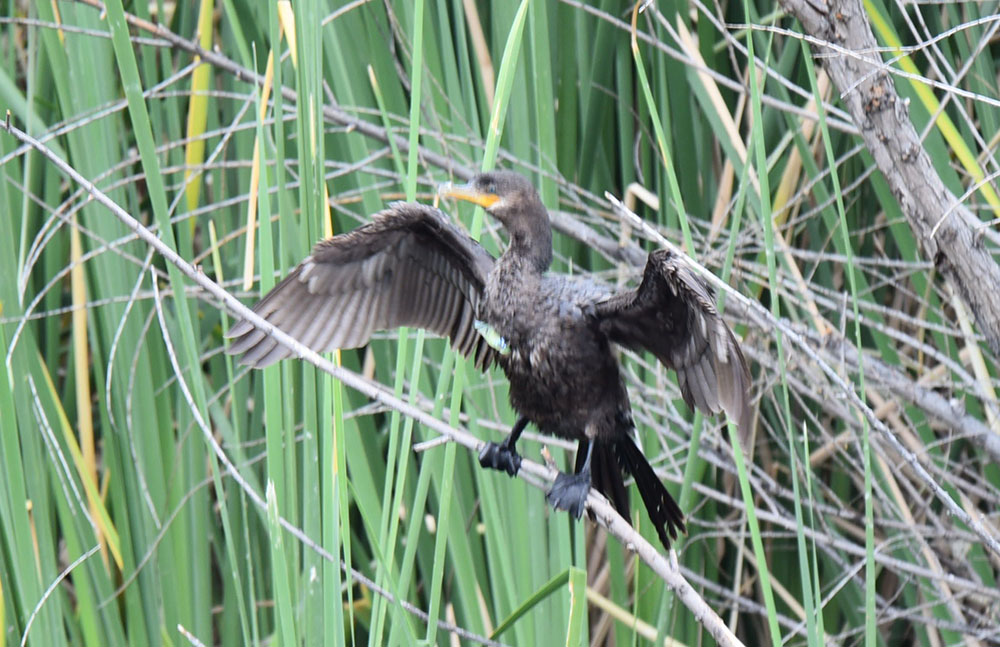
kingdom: Animalia
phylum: Chordata
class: Aves
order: Suliformes
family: Phalacrocoracidae
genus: Phalacrocorax
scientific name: Phalacrocorax brasilianus
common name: Neotropic cormorant
